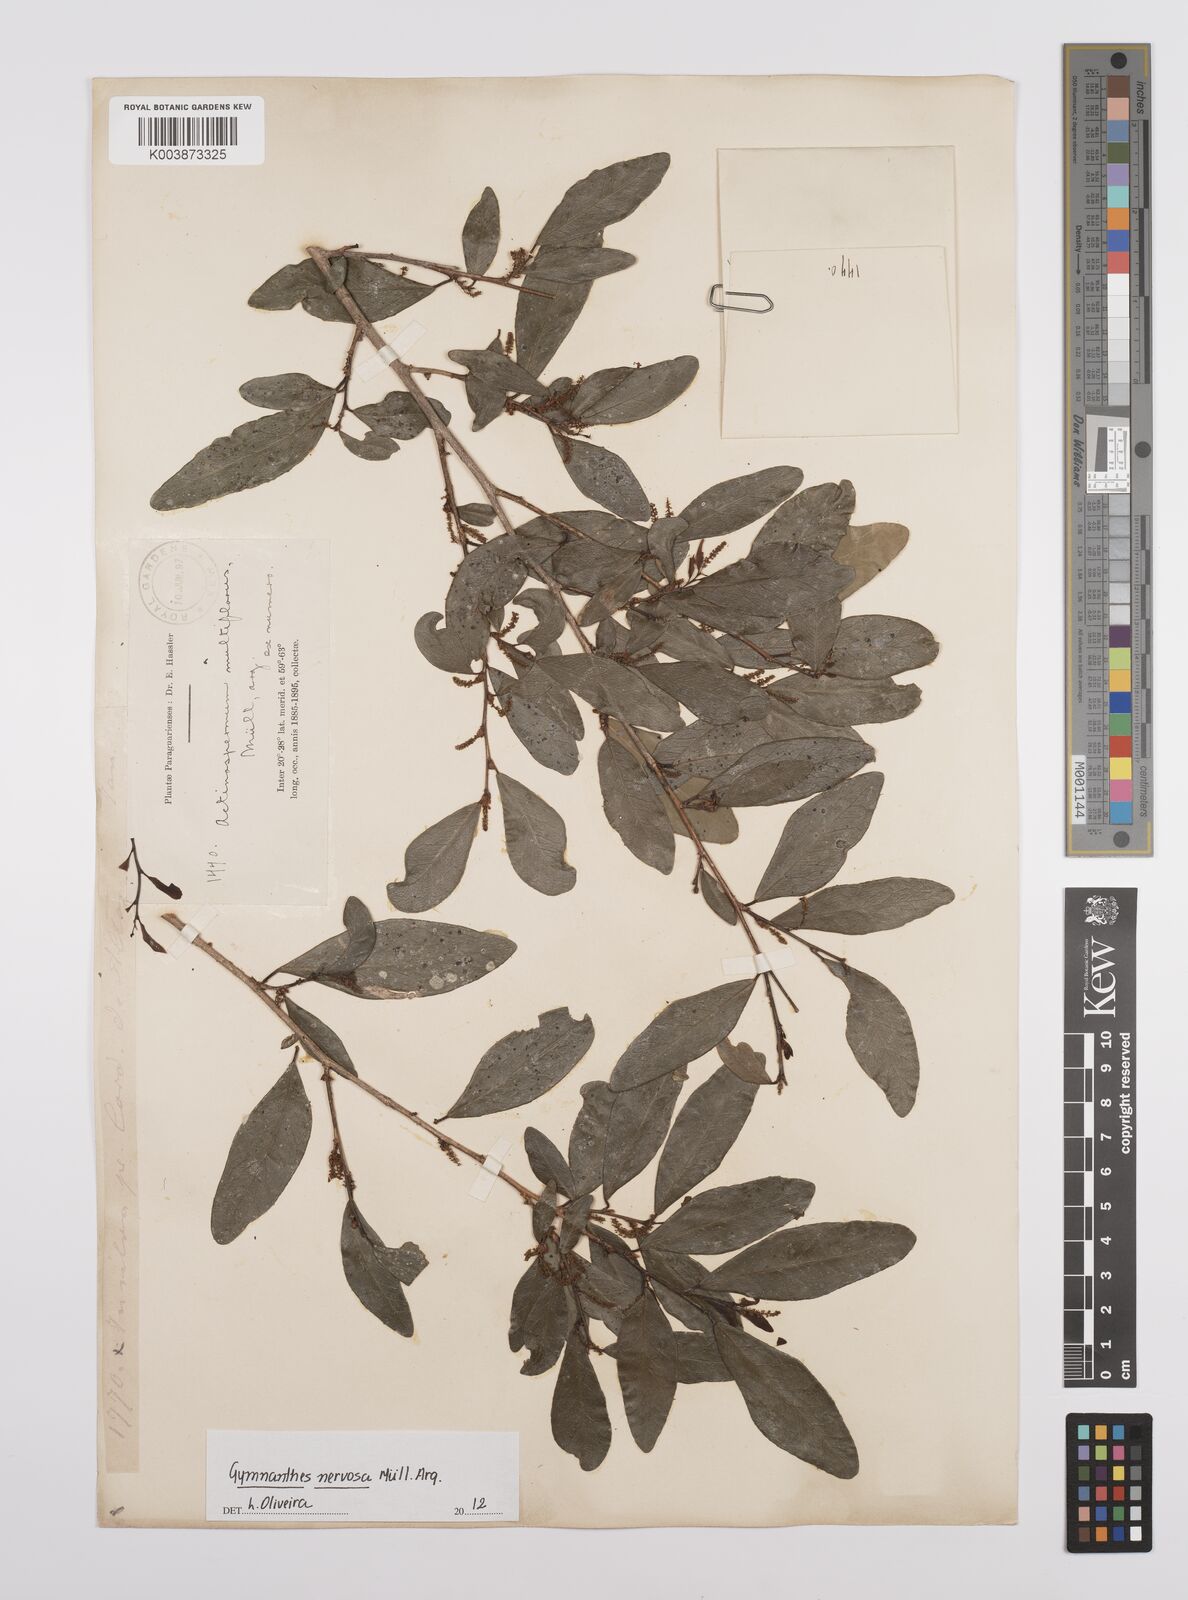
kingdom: Plantae
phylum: Tracheophyta
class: Magnoliopsida
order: Malpighiales
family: Euphorbiaceae
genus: Gymnanthes
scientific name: Gymnanthes nervosa
